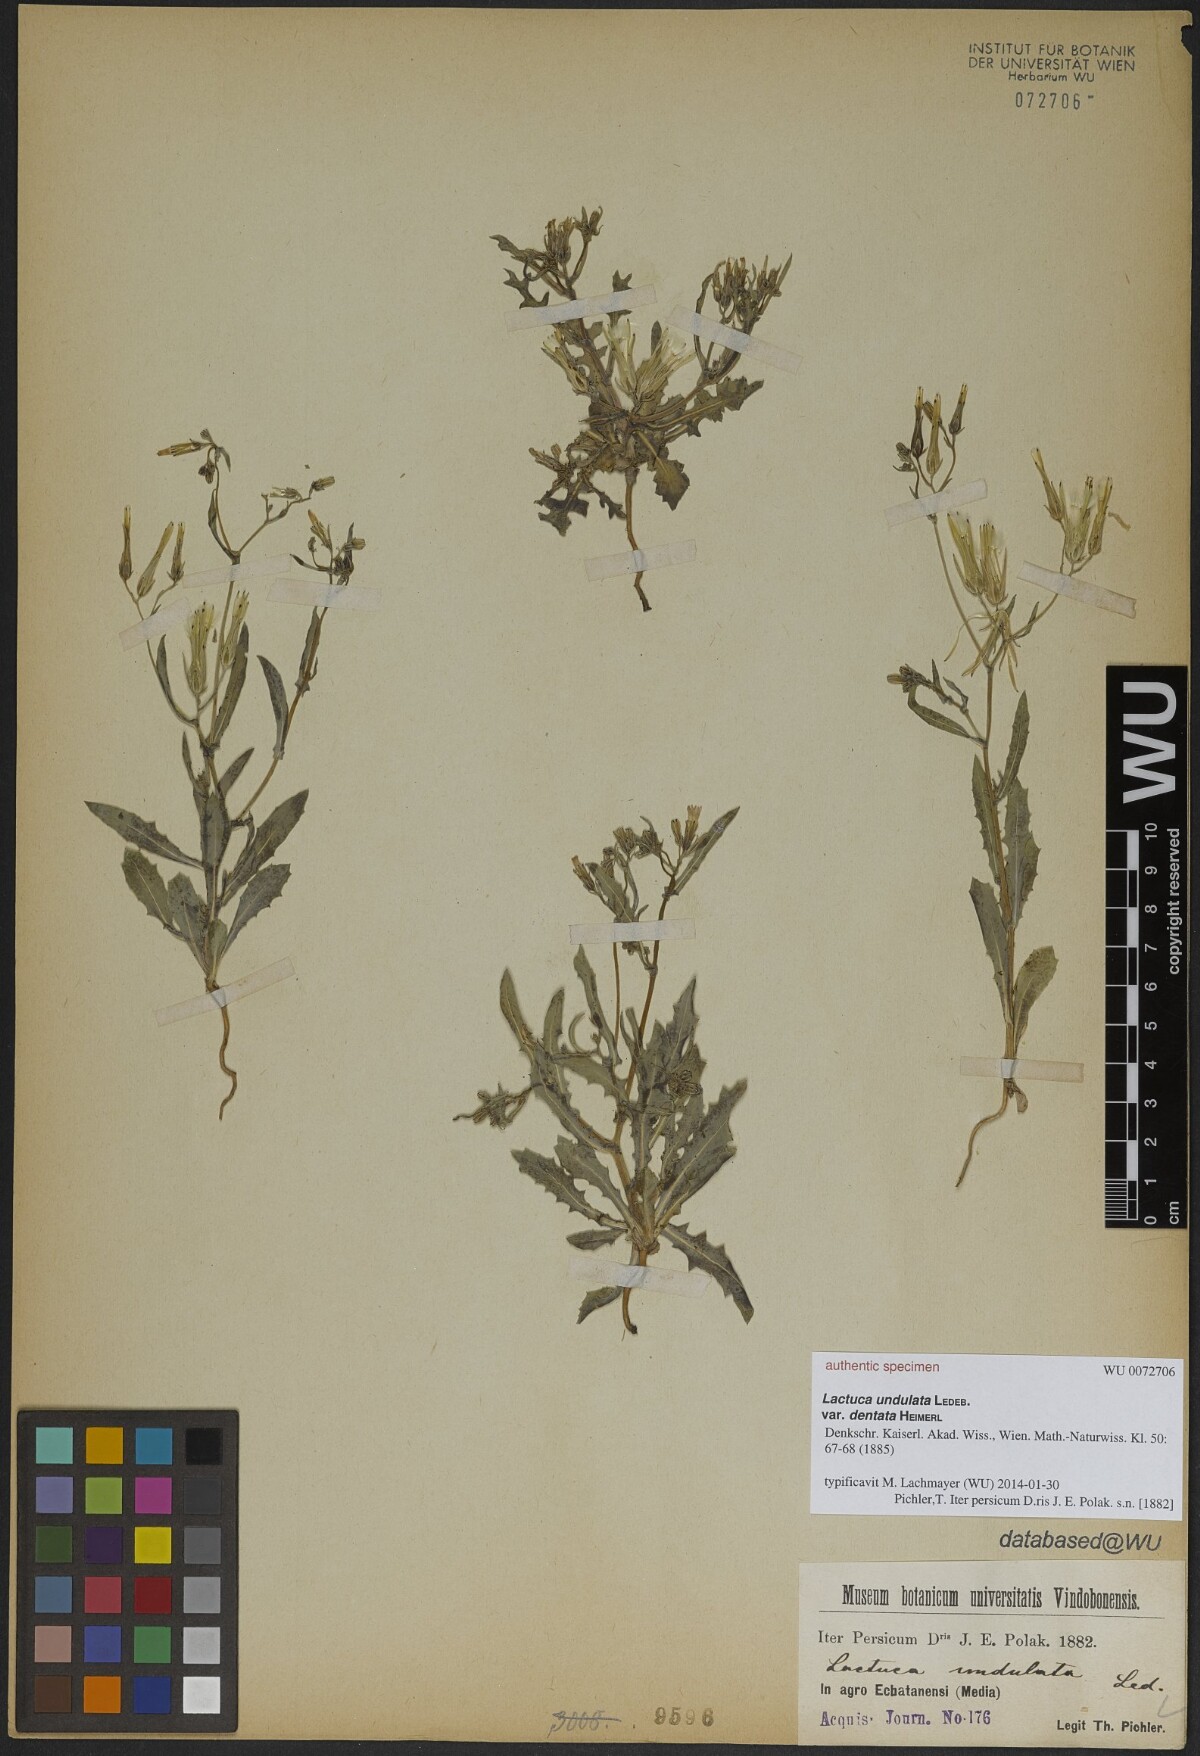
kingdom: Plantae
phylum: Tracheophyta
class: Magnoliopsida
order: Asterales
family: Asteraceae
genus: Lactuca
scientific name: Lactuca undulata
